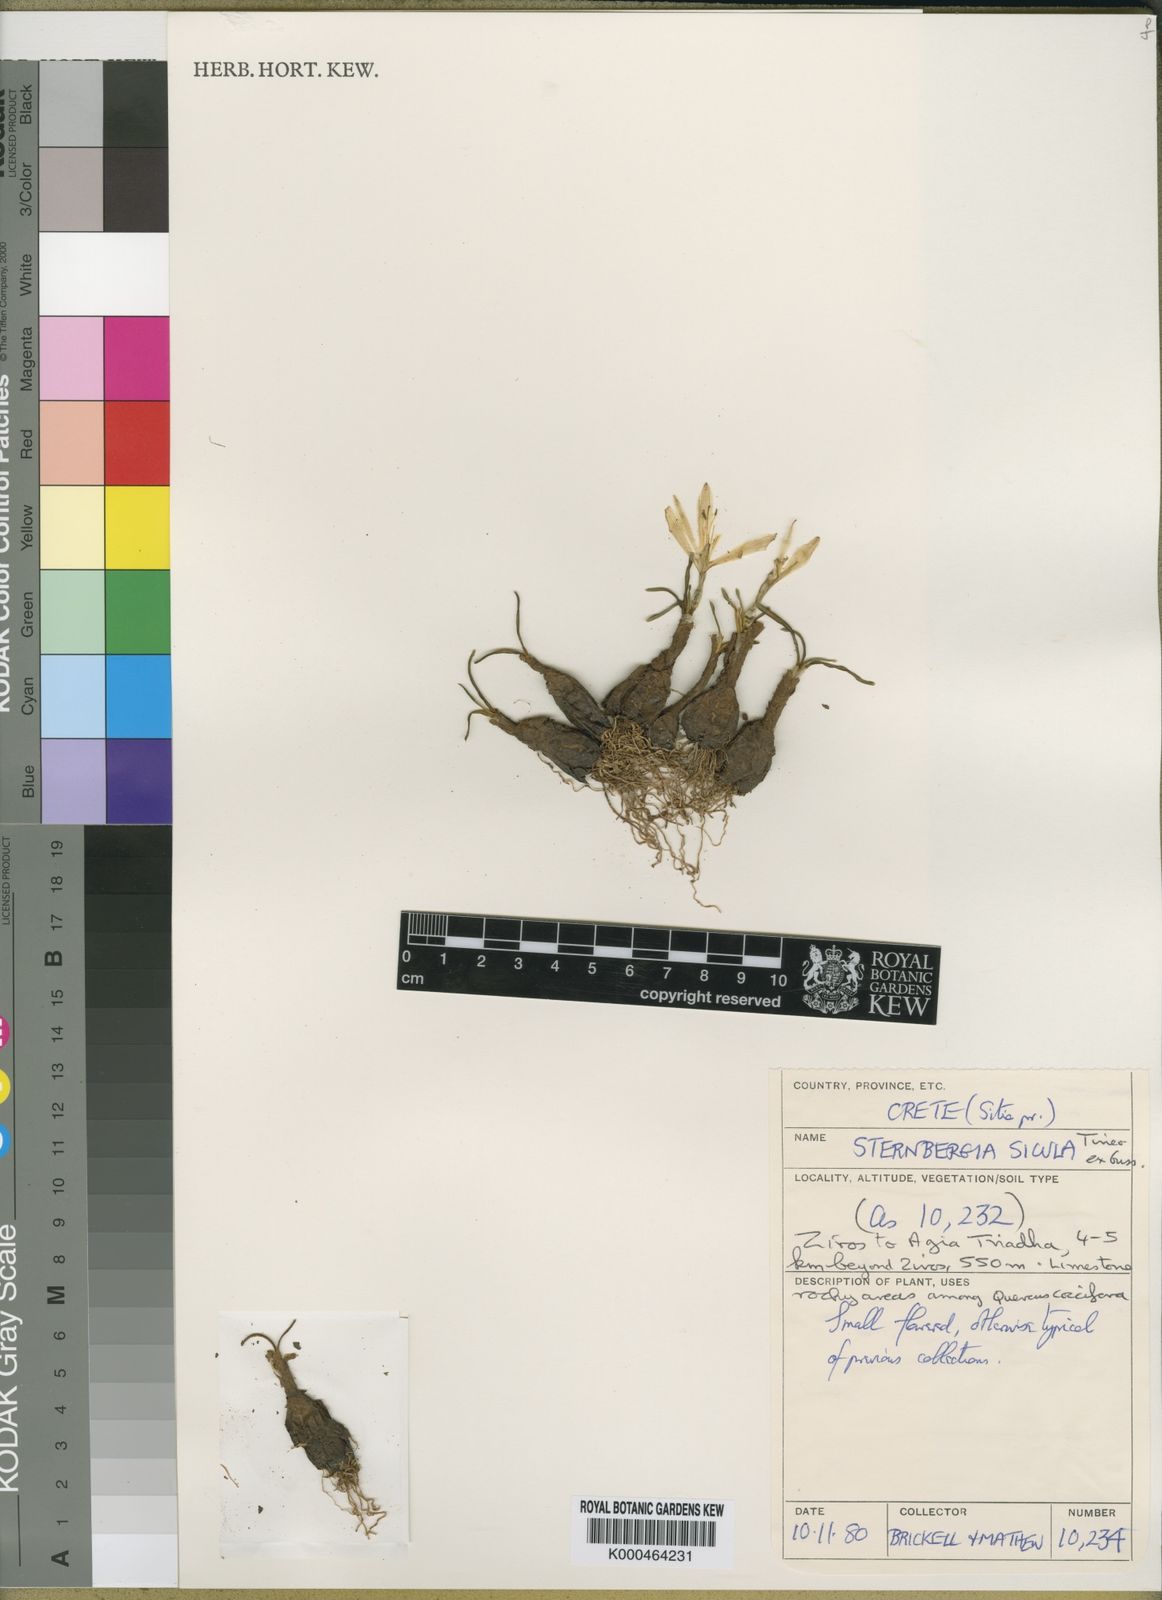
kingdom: Plantae
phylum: Tracheophyta
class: Liliopsida
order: Asparagales
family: Amaryllidaceae
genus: Sternbergia
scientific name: Sternbergia
